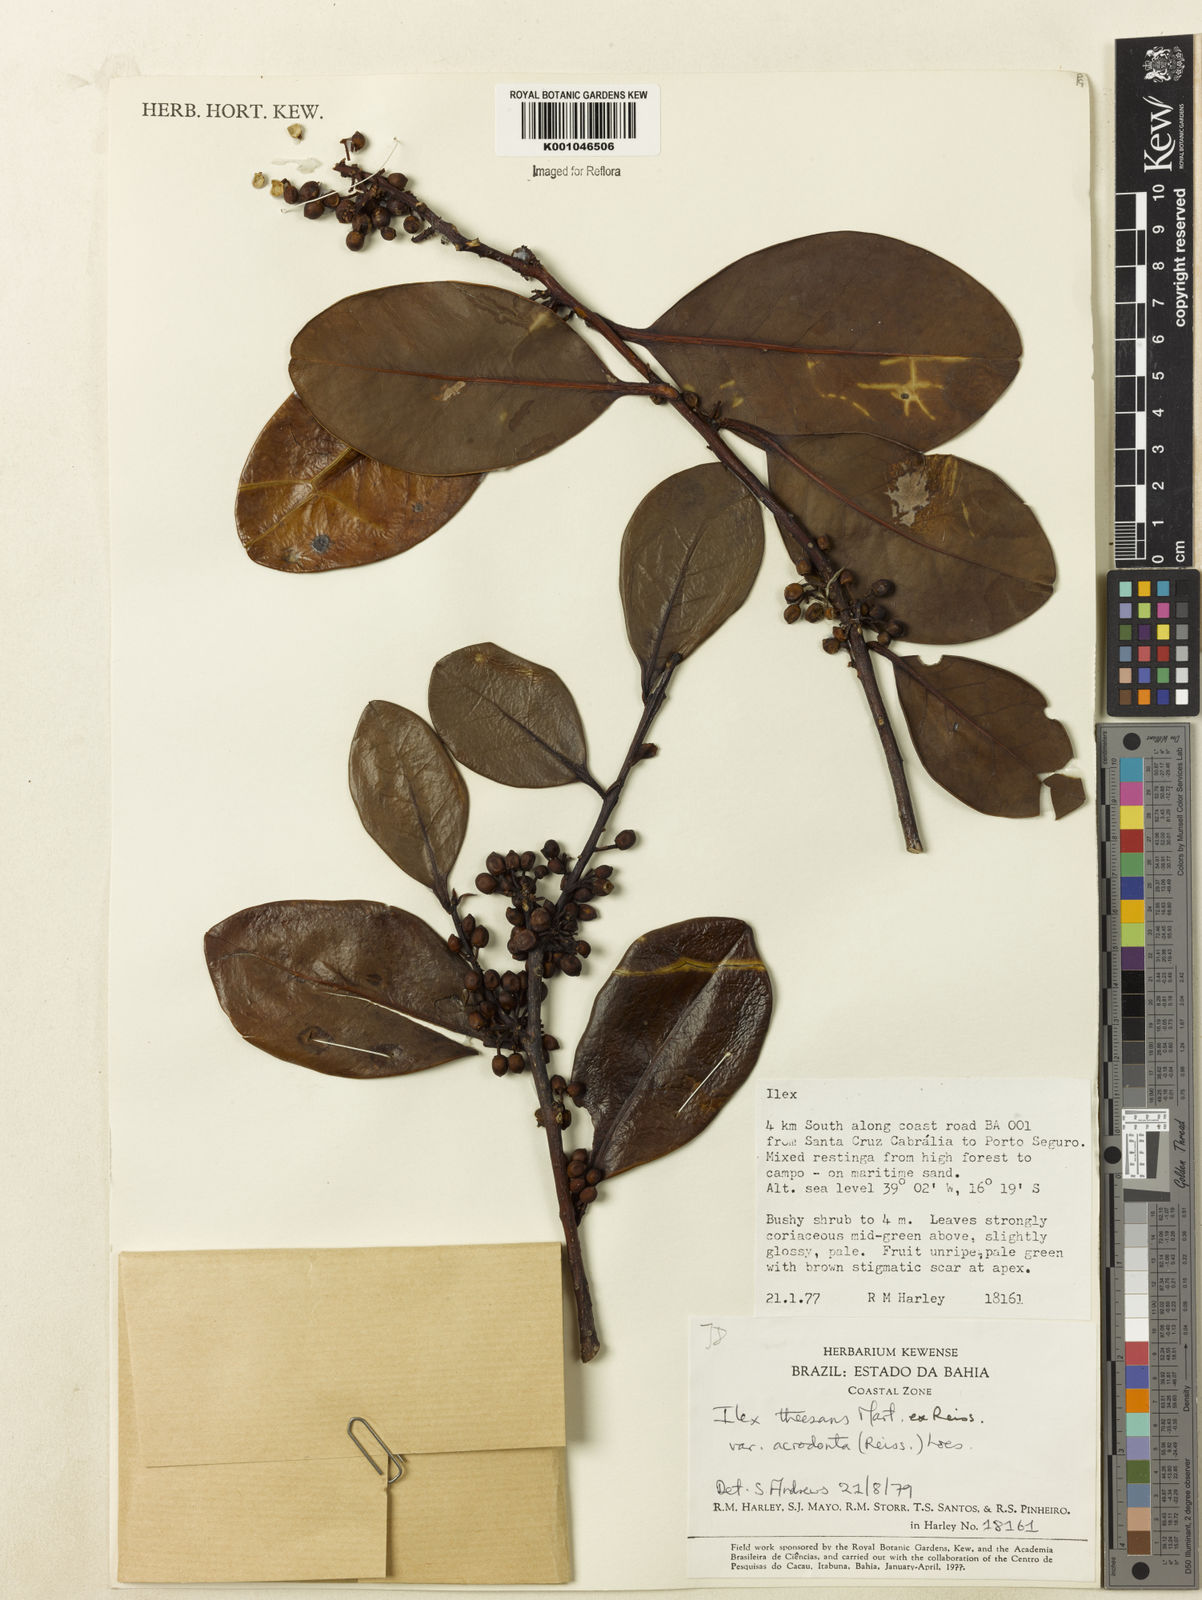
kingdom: Plantae
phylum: Tracheophyta
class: Magnoliopsida
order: Aquifoliales
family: Aquifoliaceae
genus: Ilex
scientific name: Ilex theezans
